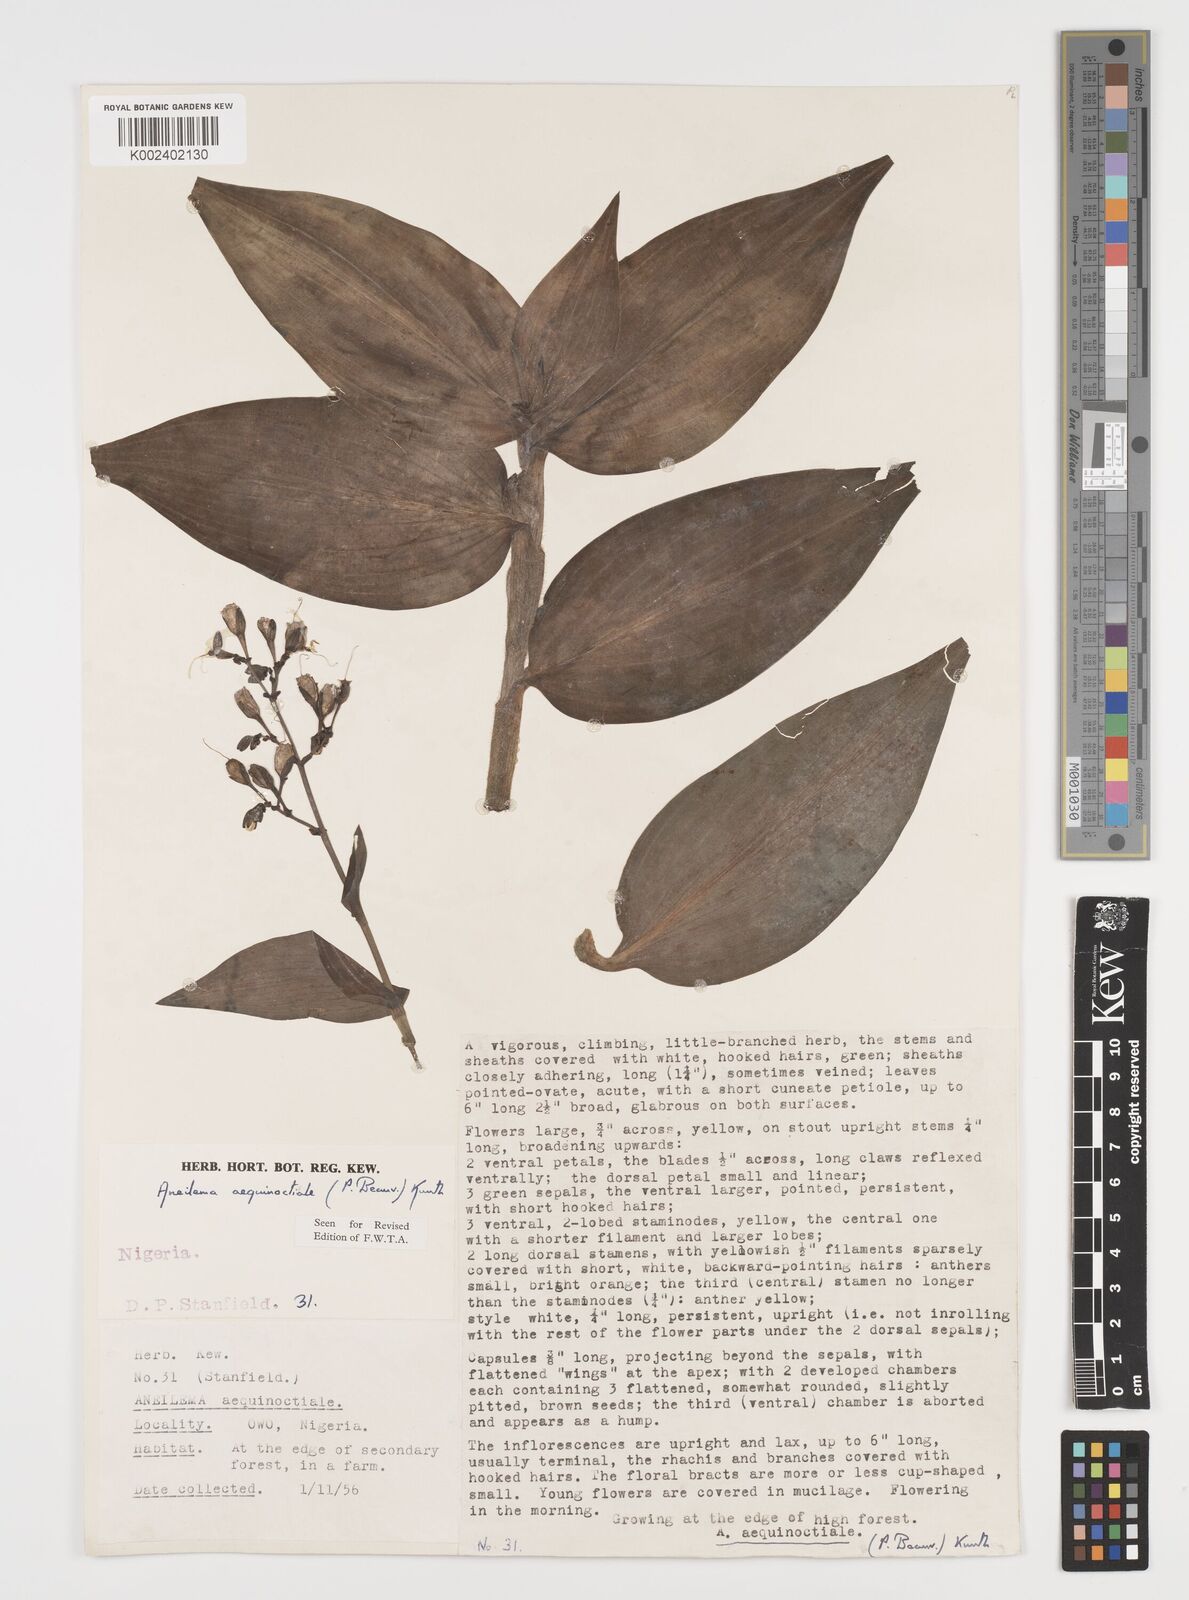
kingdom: Plantae
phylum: Tracheophyta
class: Liliopsida
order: Commelinales
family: Commelinaceae
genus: Aneilema
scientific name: Aneilema aequinoctiale
